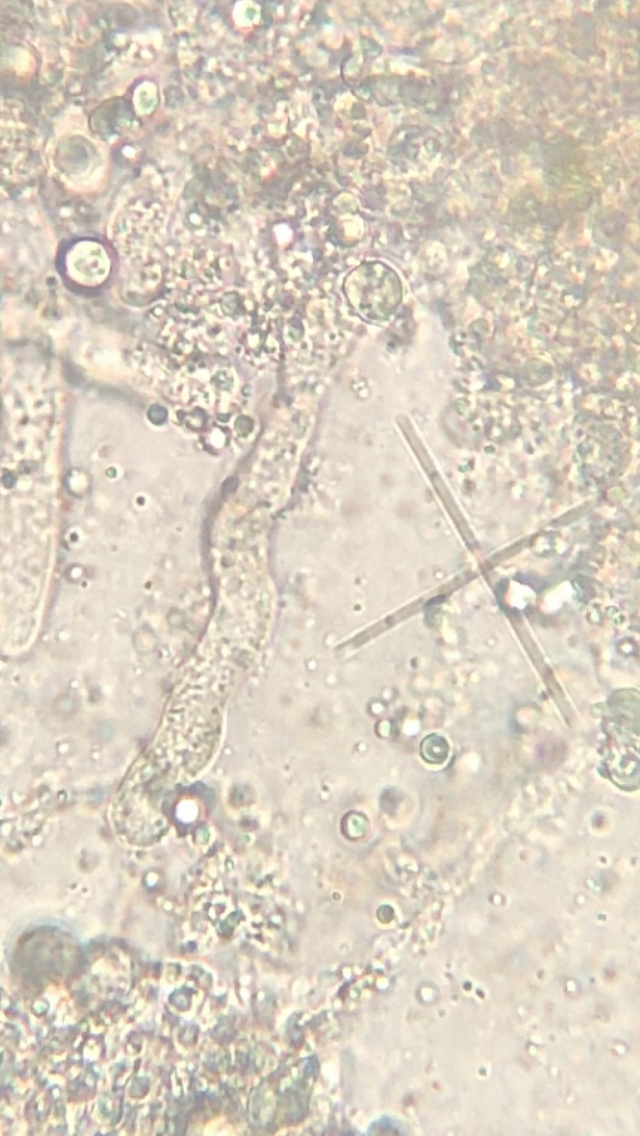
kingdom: Fungi
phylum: Basidiomycota
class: Agaricomycetes
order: Corticiales
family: Vuilleminiaceae
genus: Vuilleminia
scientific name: Vuilleminia coryli
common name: hassel-barksprænger
